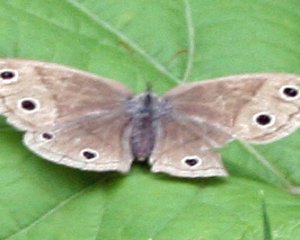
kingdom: Animalia
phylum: Arthropoda
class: Insecta
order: Lepidoptera
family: Nymphalidae
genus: Euptychia
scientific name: Euptychia cymela
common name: Little Wood Satyr
